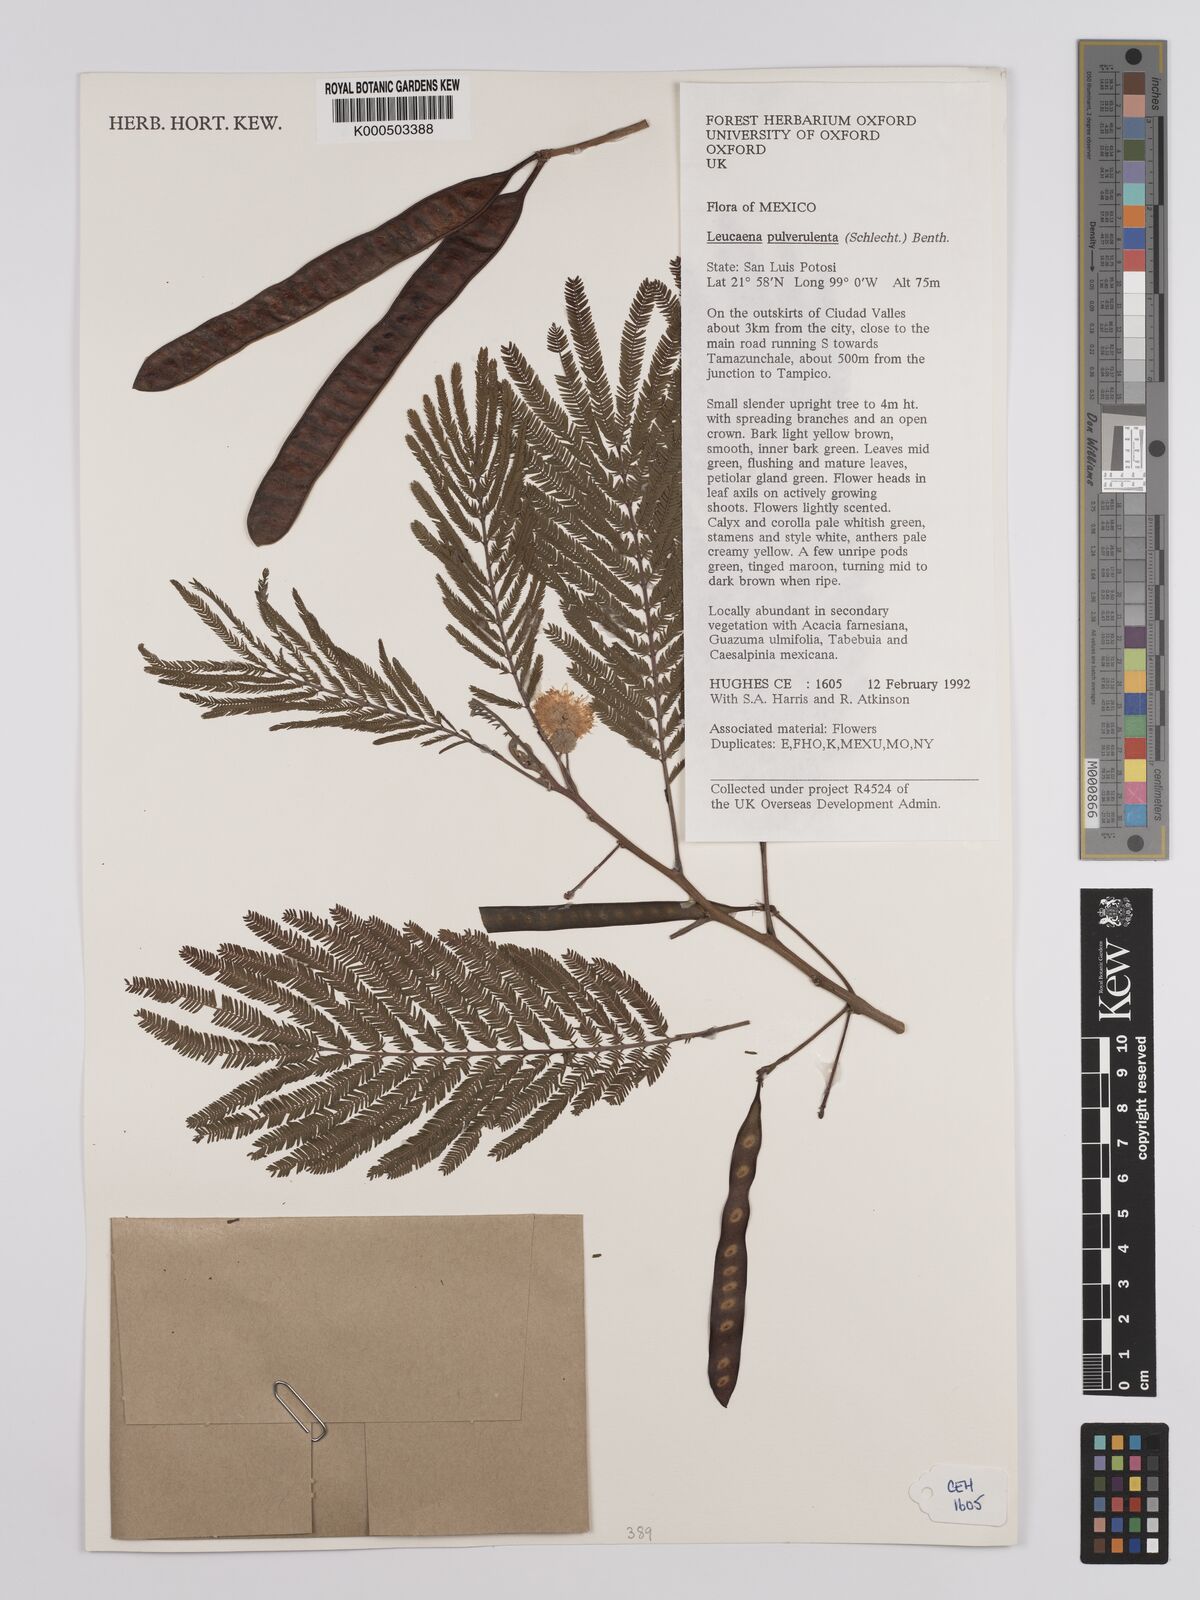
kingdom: Plantae
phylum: Tracheophyta
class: Magnoliopsida
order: Fabales
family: Fabaceae
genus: Leucaena
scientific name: Leucaena pulverulenta
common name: Great leadtree
